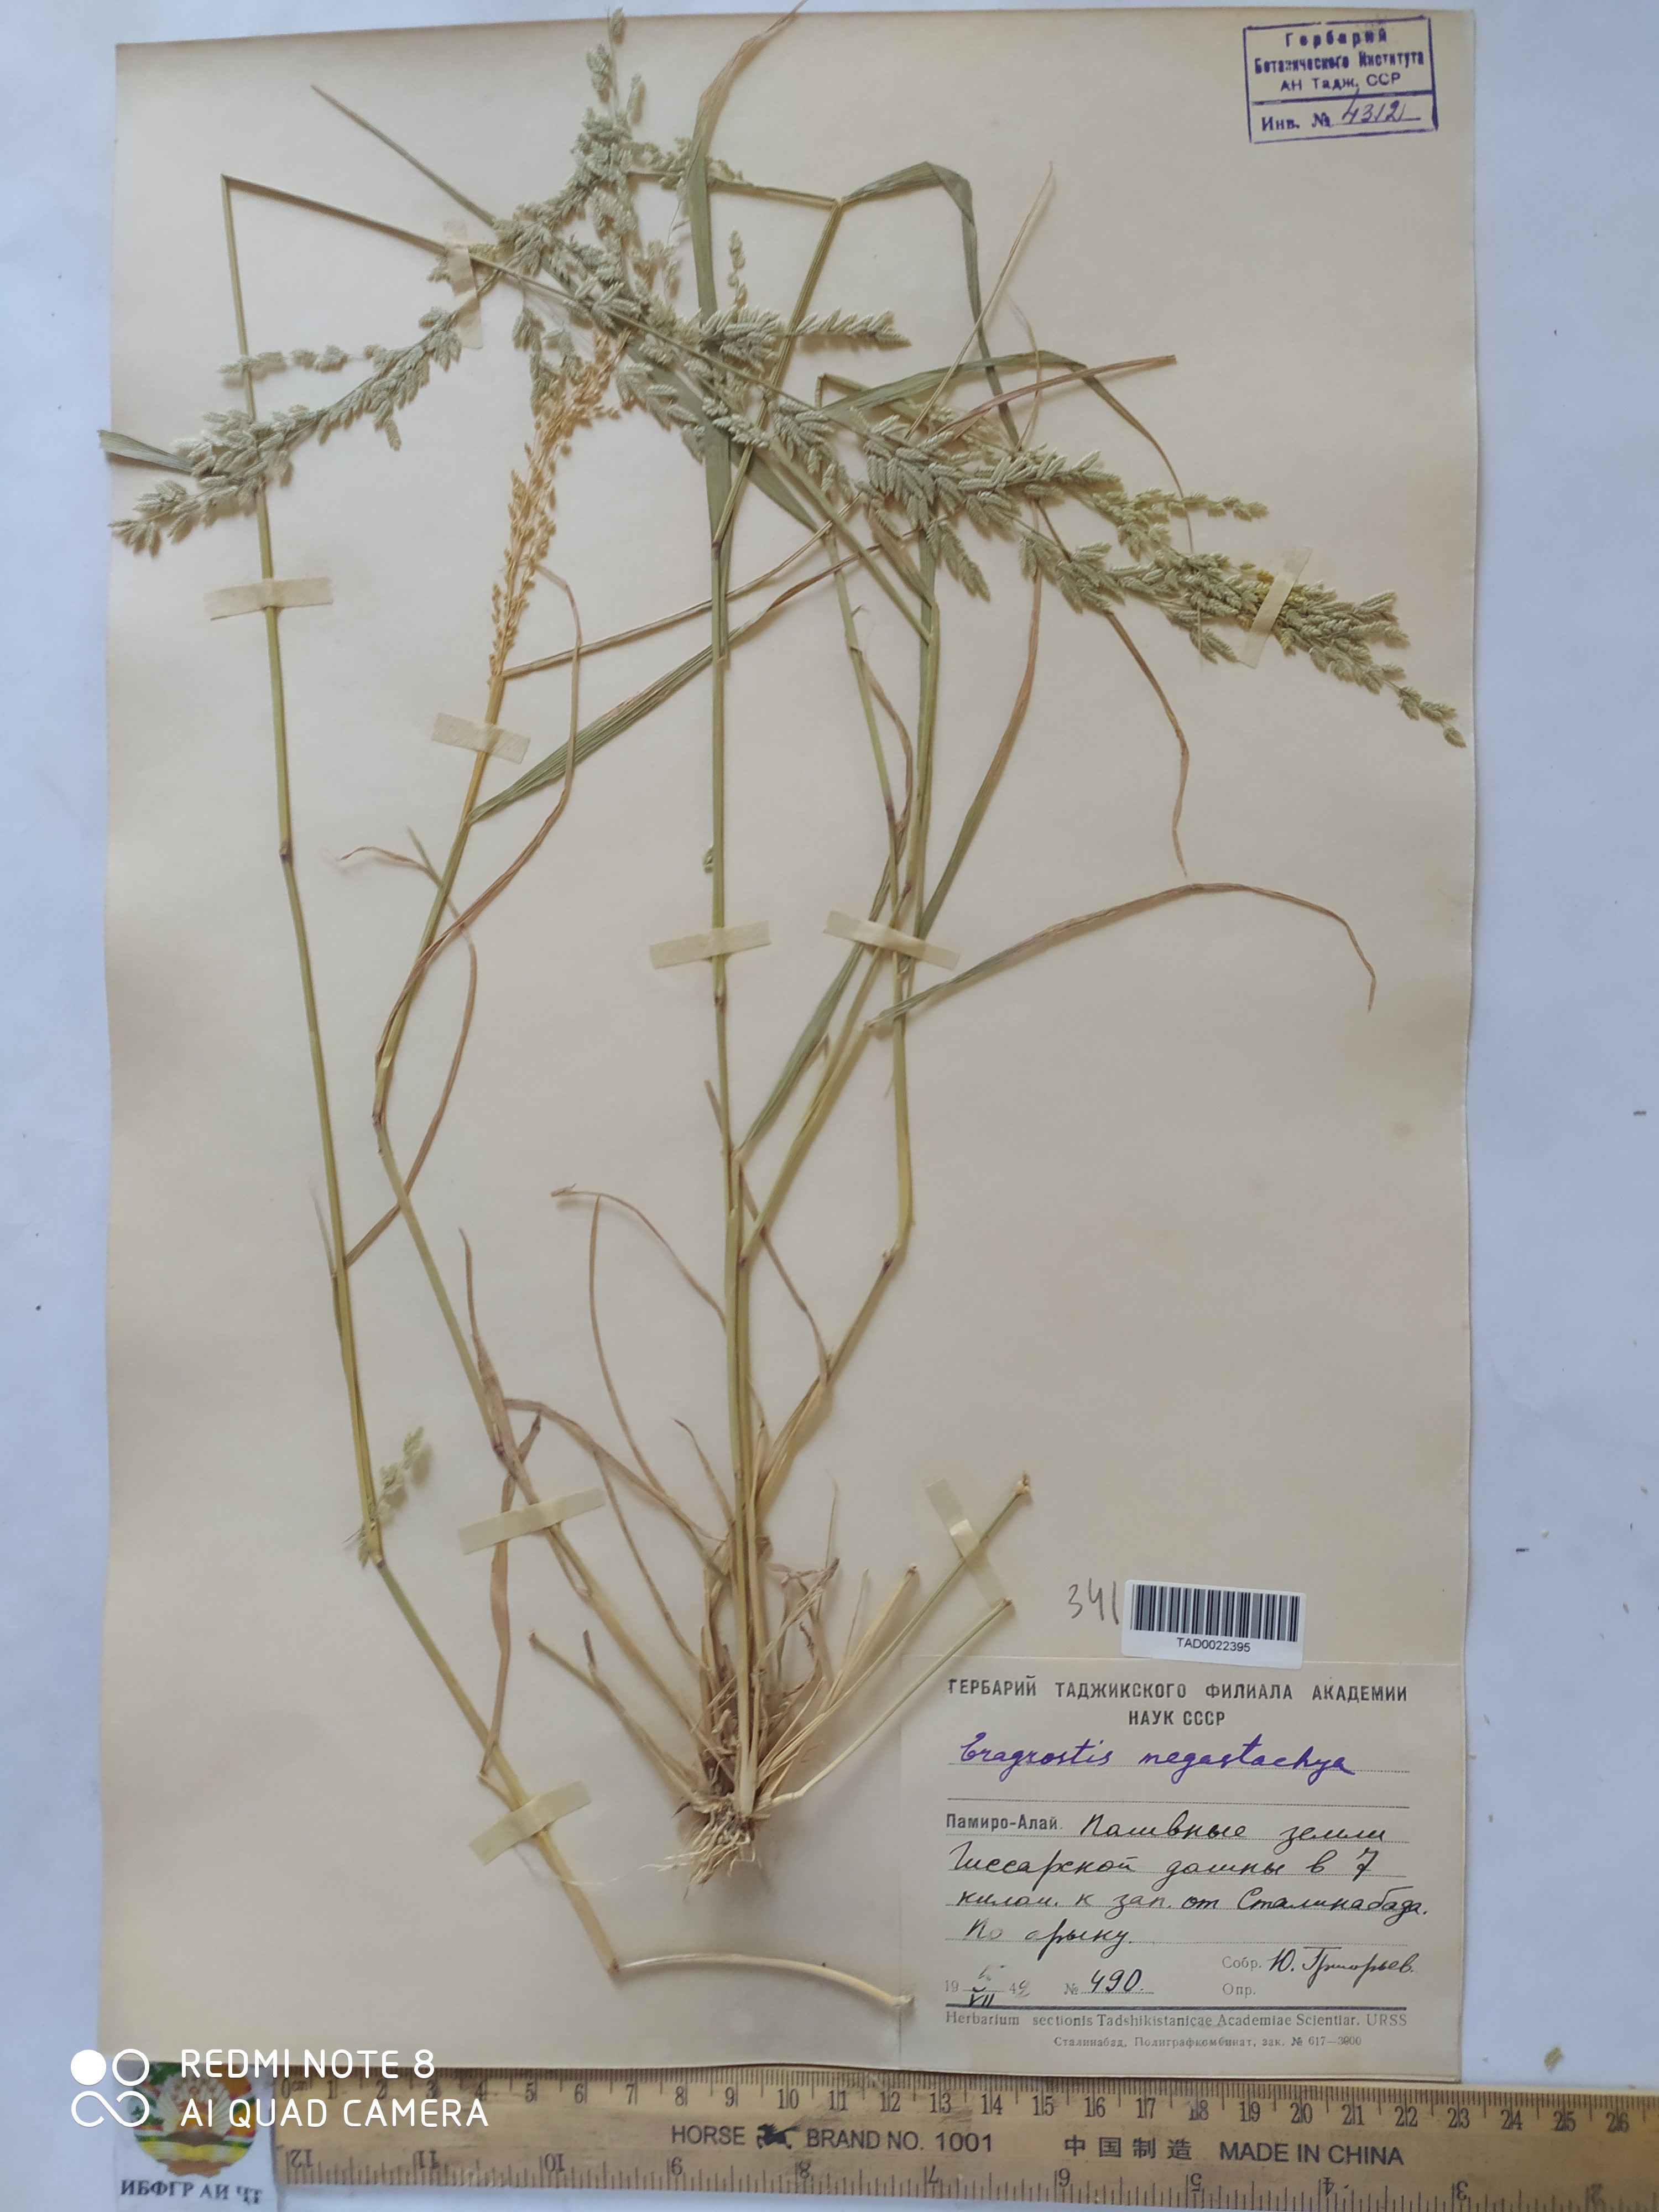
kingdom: Plantae
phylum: Tracheophyta
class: Liliopsida
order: Poales
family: Poaceae
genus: Eragrostis
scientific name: Eragrostis cilianensis
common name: Stinkgrass
